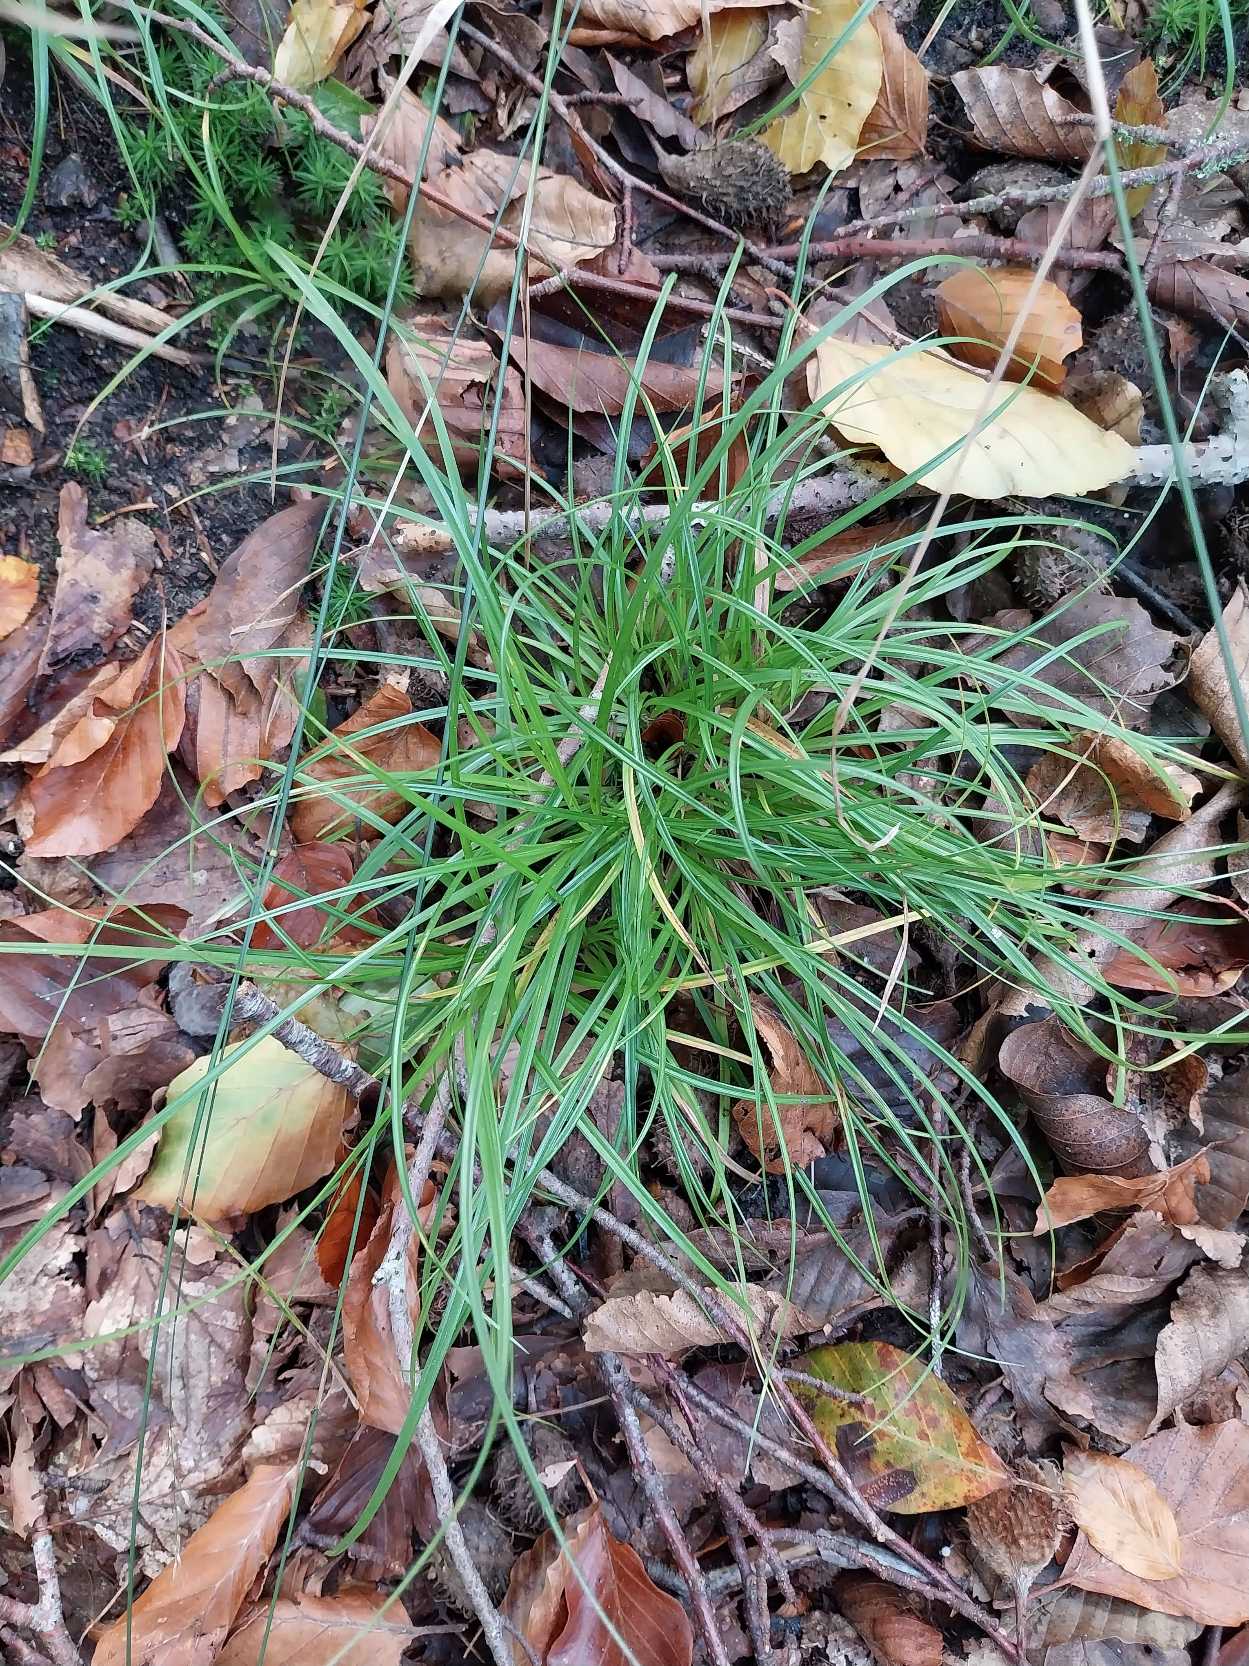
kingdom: Plantae
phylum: Tracheophyta
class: Liliopsida
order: Poales
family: Cyperaceae
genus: Carex
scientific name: Carex pilulifera
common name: Pille-star
